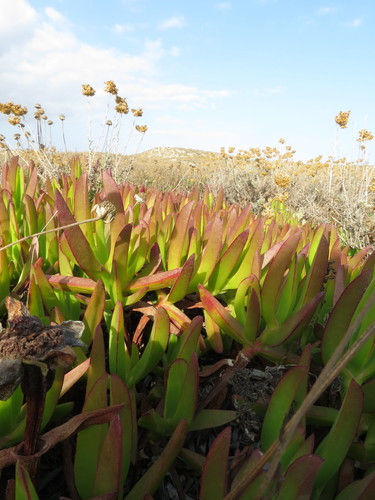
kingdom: Plantae
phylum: Tracheophyta
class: Magnoliopsida
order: Caryophyllales
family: Aizoaceae
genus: Carpobrotus
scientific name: Carpobrotus edulis
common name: Hottentot-fig
